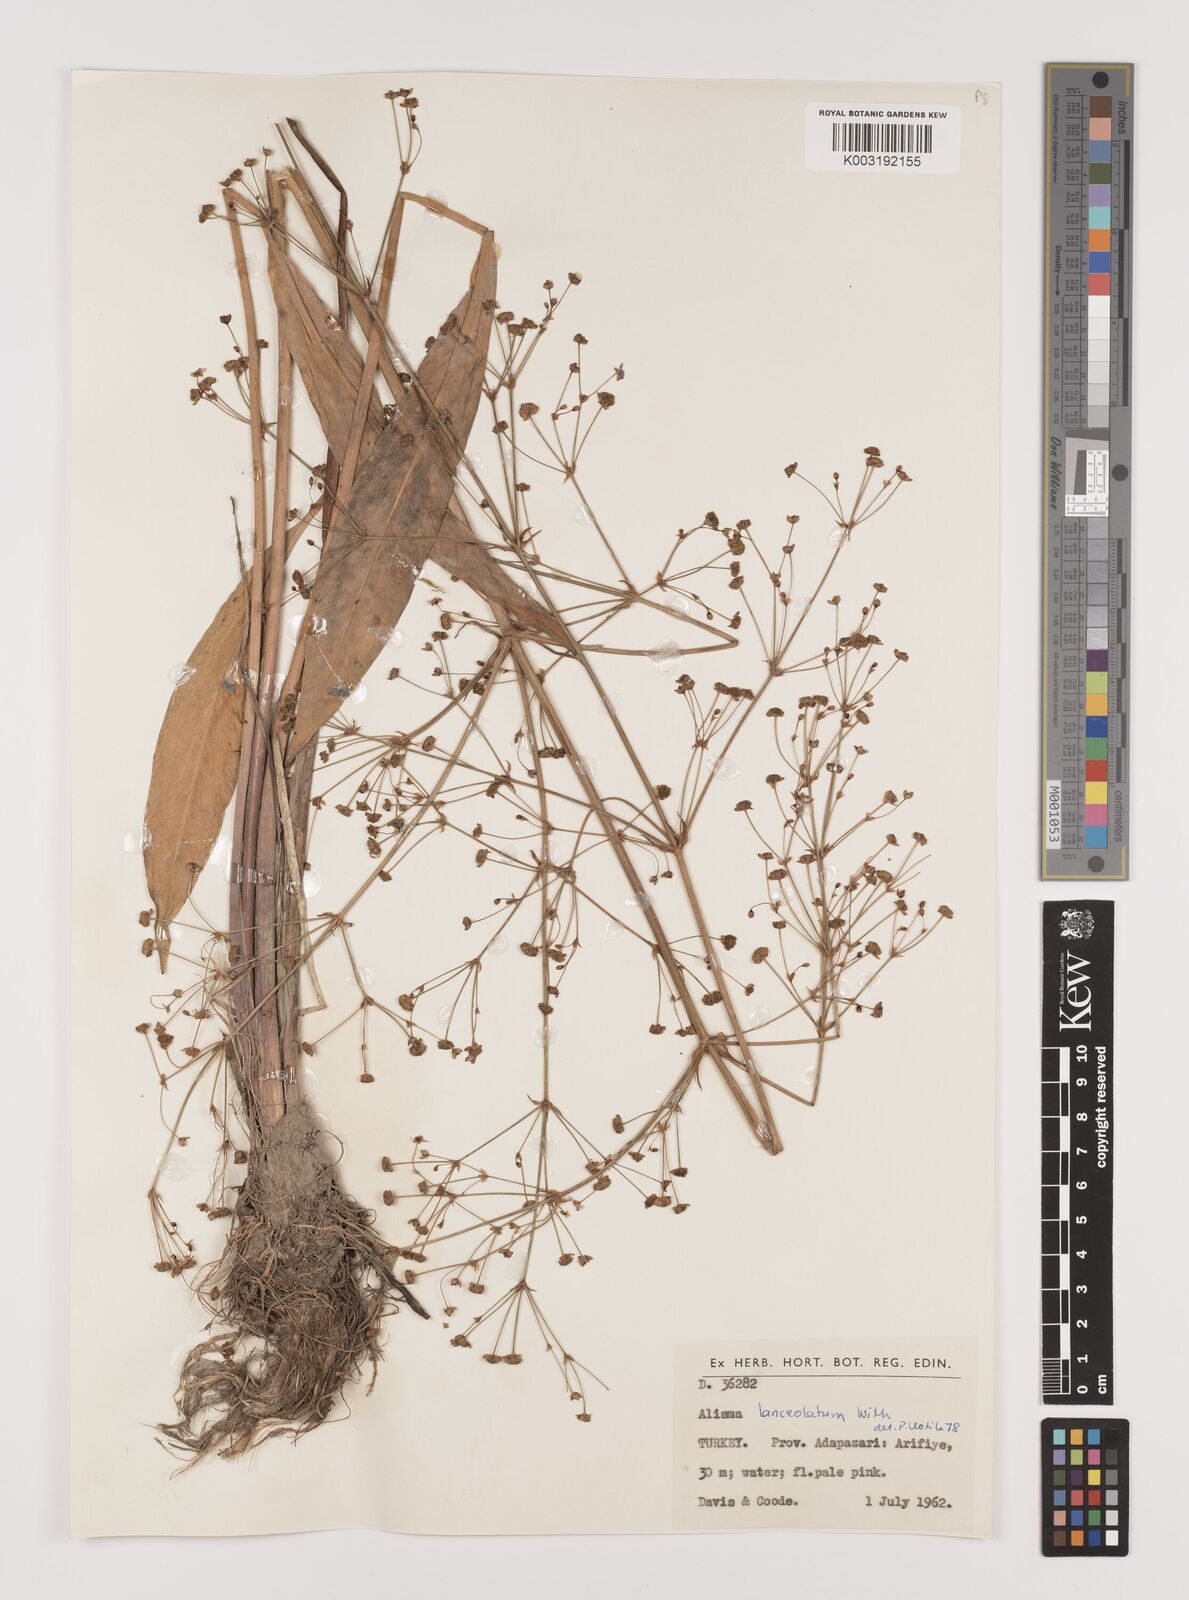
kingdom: Plantae
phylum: Tracheophyta
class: Liliopsida
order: Alismatales
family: Alismataceae
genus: Alisma
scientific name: Alisma lanceolatum
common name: Narrow-leaved water-plantain
